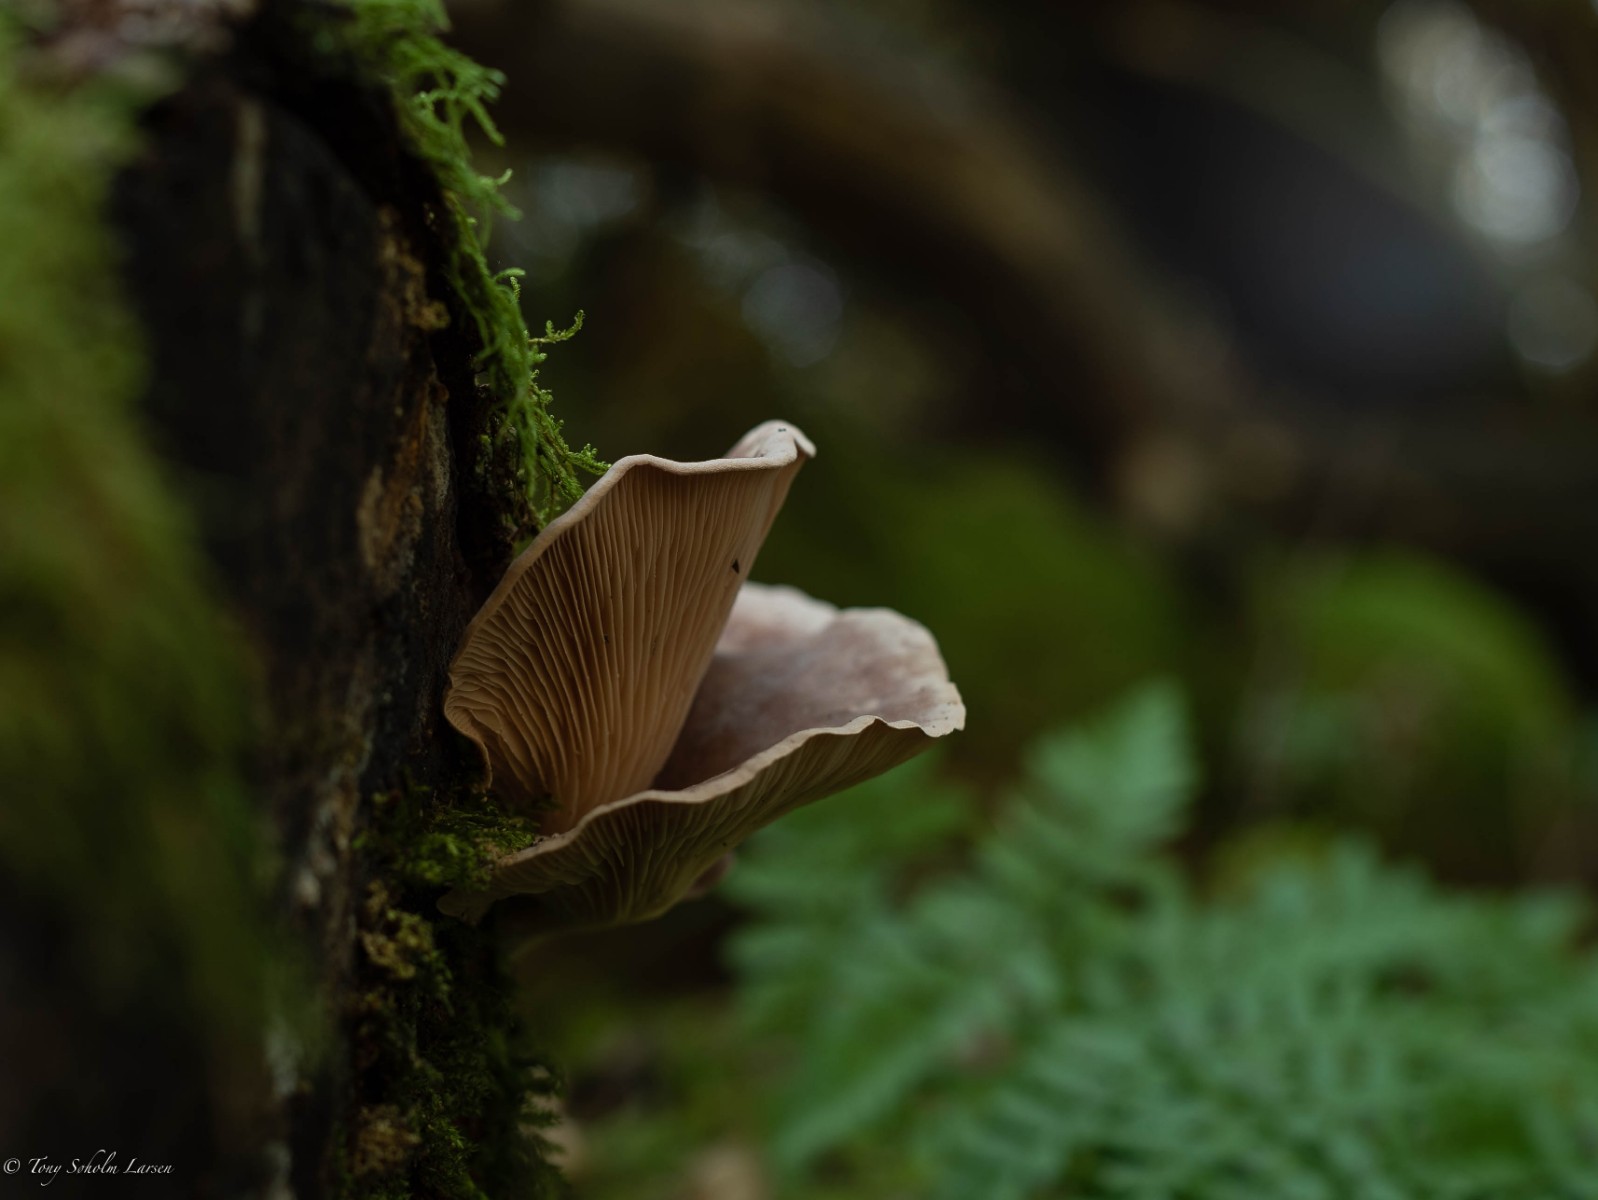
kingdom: Fungi
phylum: Basidiomycota
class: Agaricomycetes
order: Agaricales
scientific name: Agaricales
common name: champignonordenen
